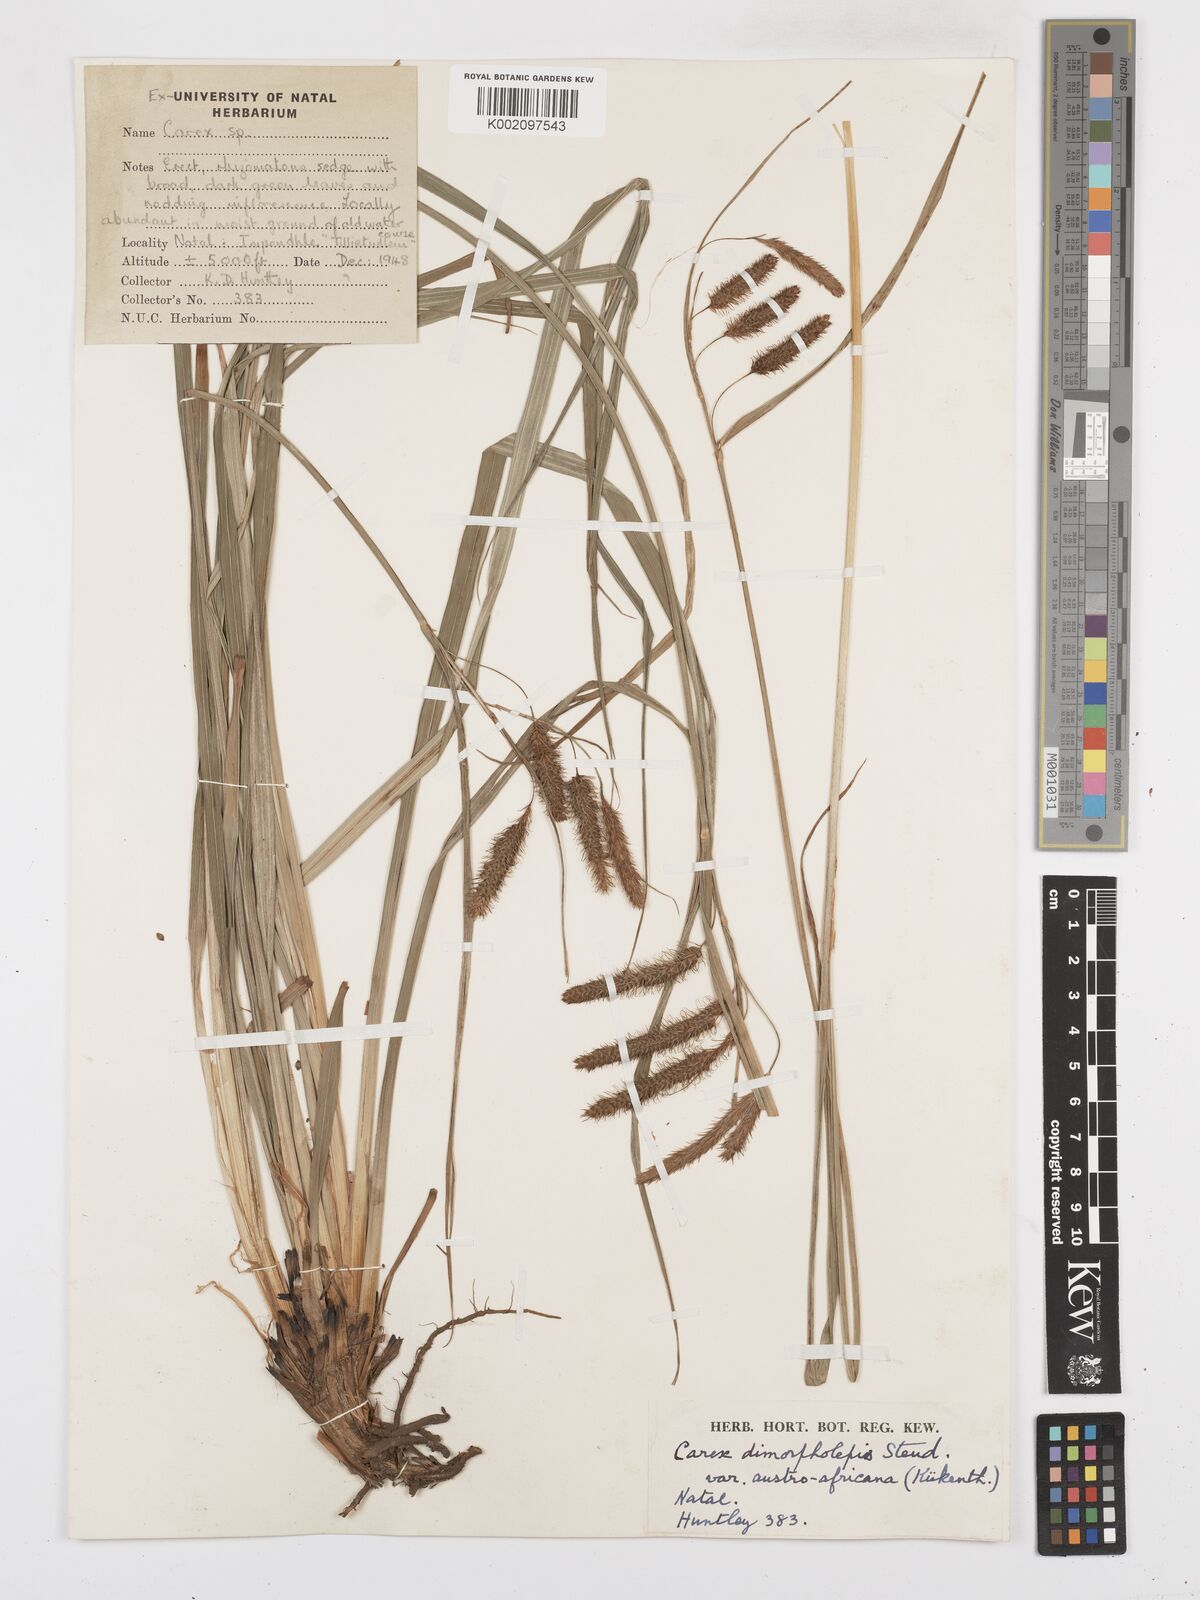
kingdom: Plantae
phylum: Tracheophyta
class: Liliopsida
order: Poales
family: Cyperaceae
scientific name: Cyperaceae
